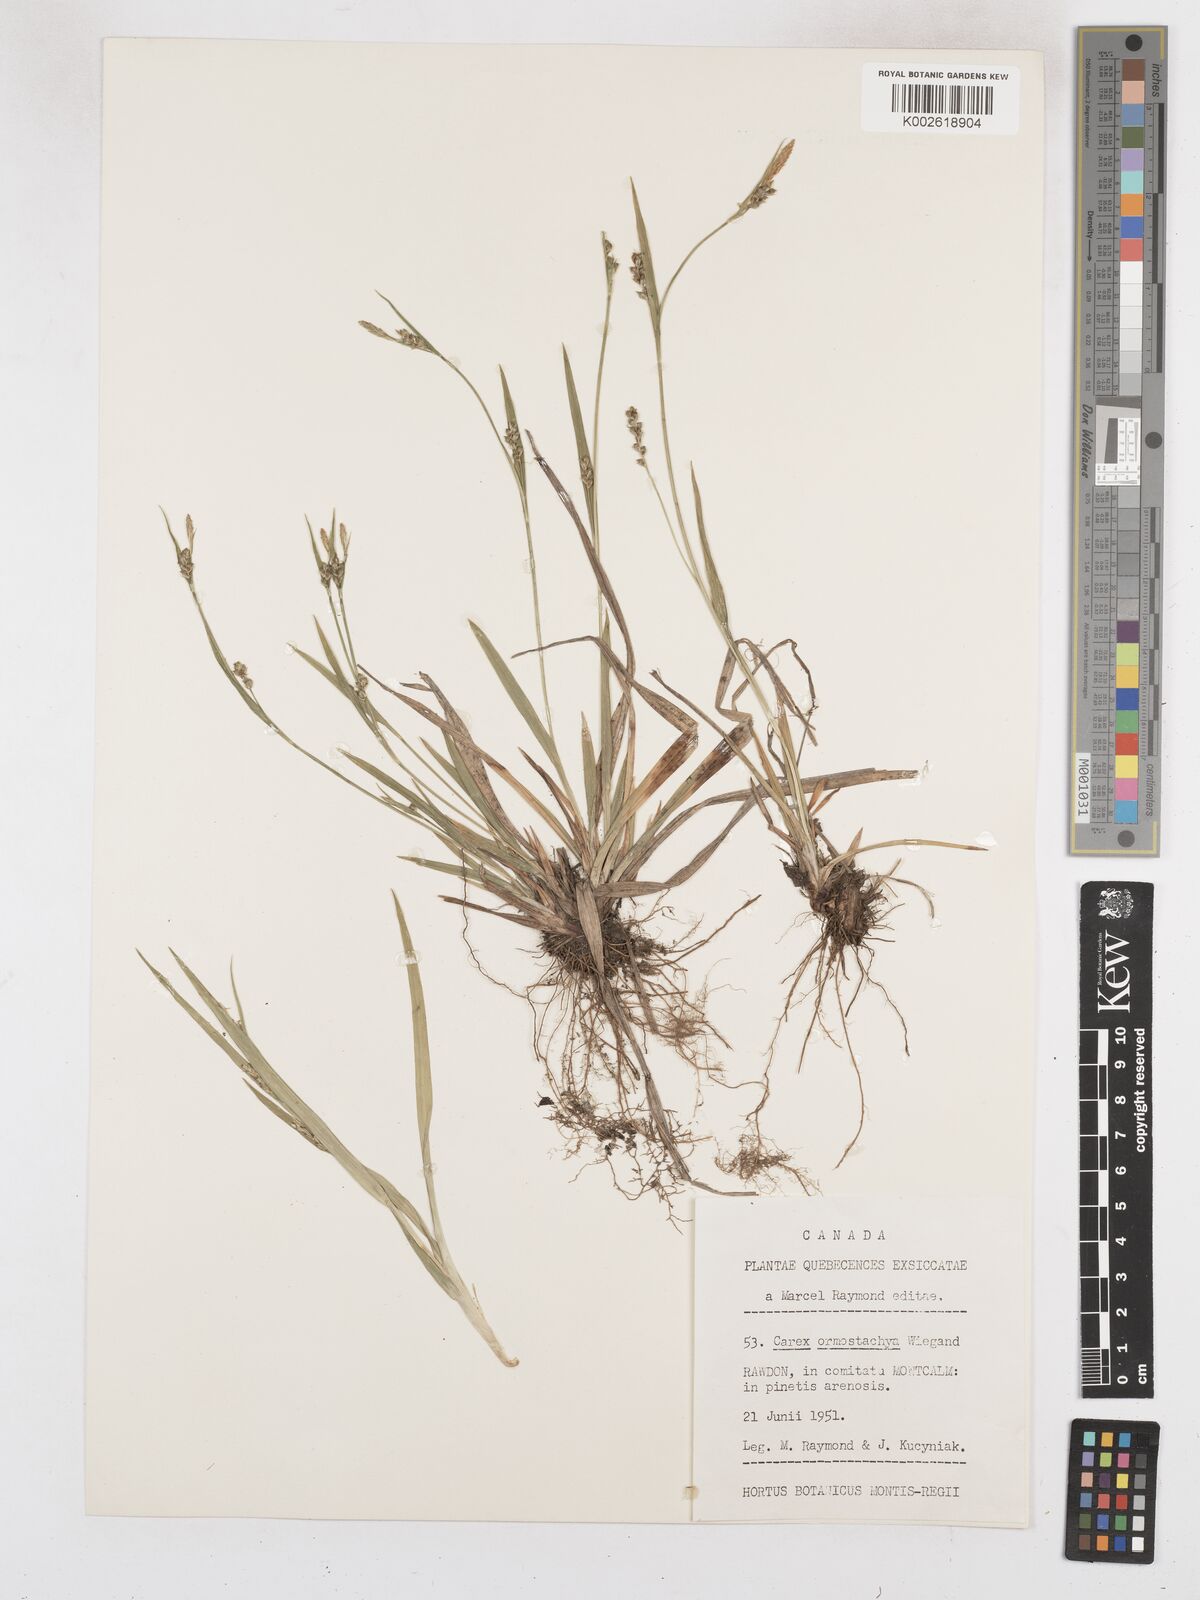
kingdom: Plantae
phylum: Tracheophyta
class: Liliopsida
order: Poales
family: Cyperaceae
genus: Carex
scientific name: Carex ormostachya
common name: Necklace spike sedge
